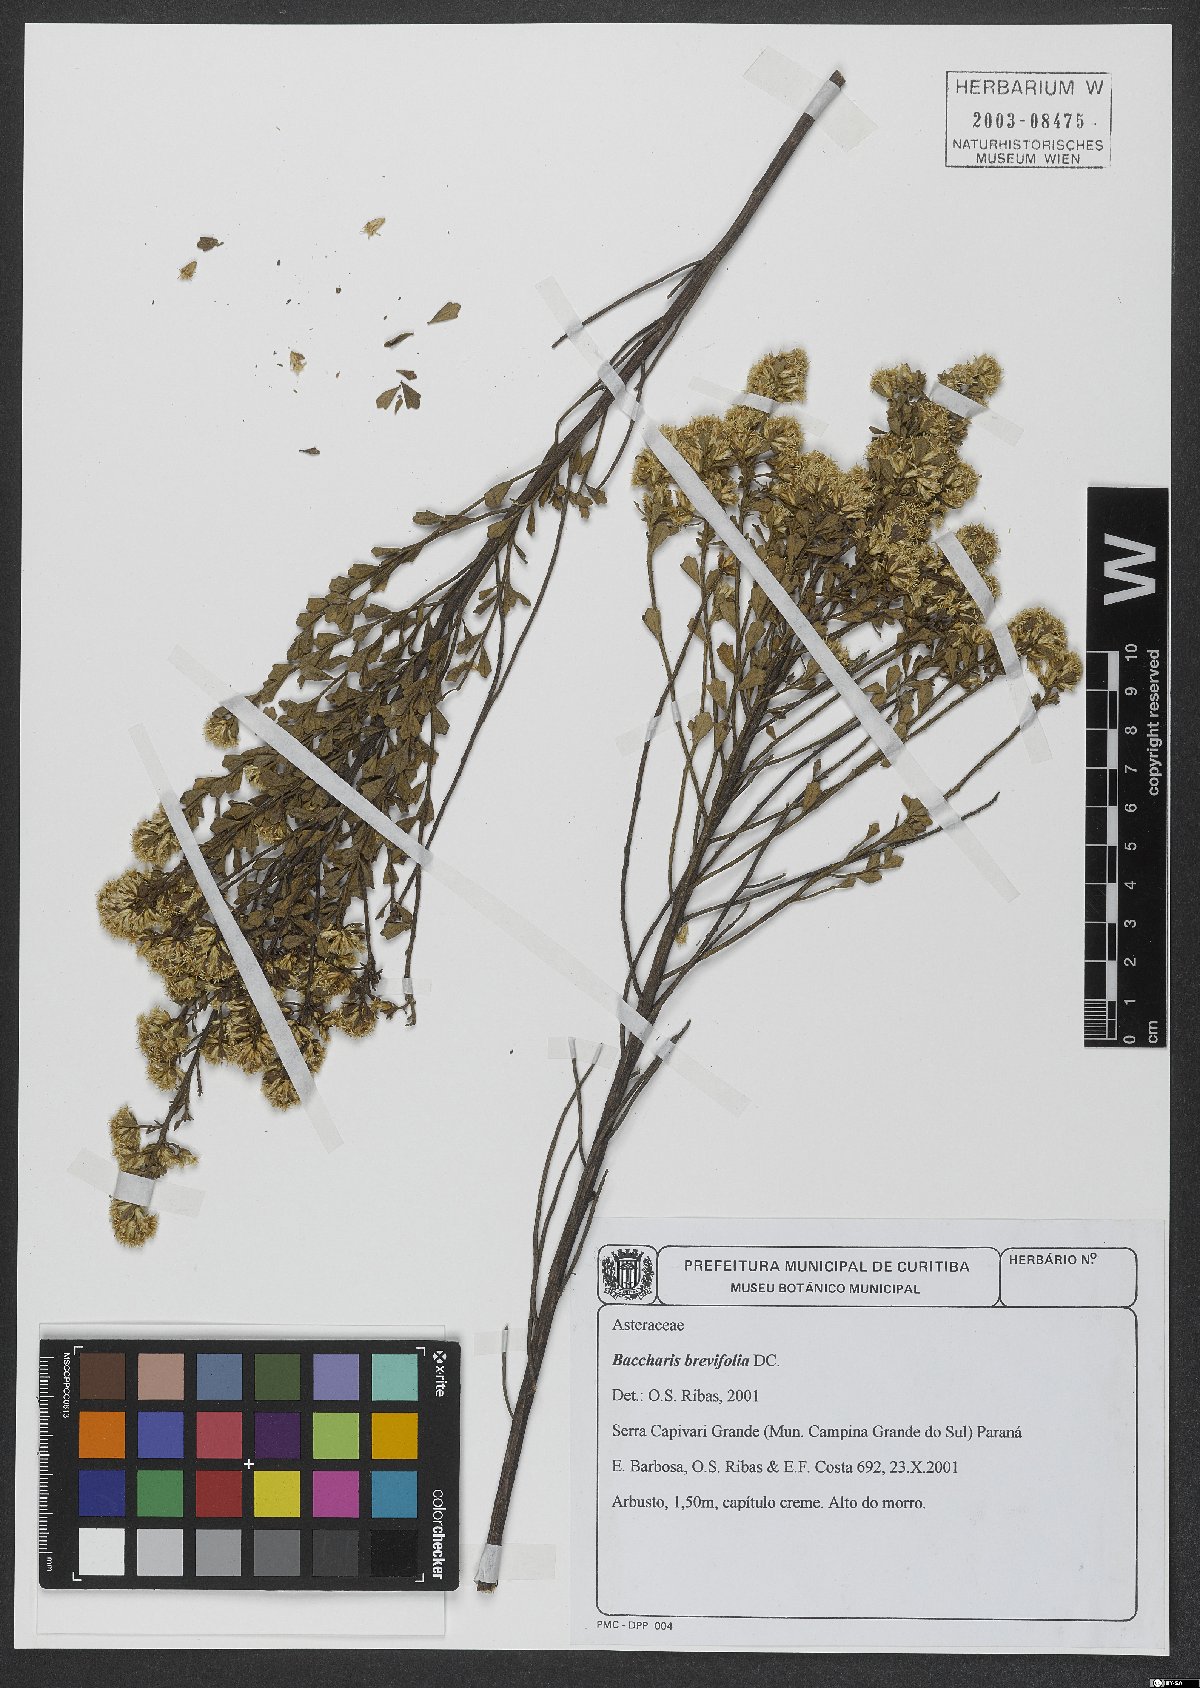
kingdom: Plantae
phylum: Tracheophyta
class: Magnoliopsida
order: Asterales
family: Asteraceae
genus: Baccharis
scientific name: Baccharis brevifolia
